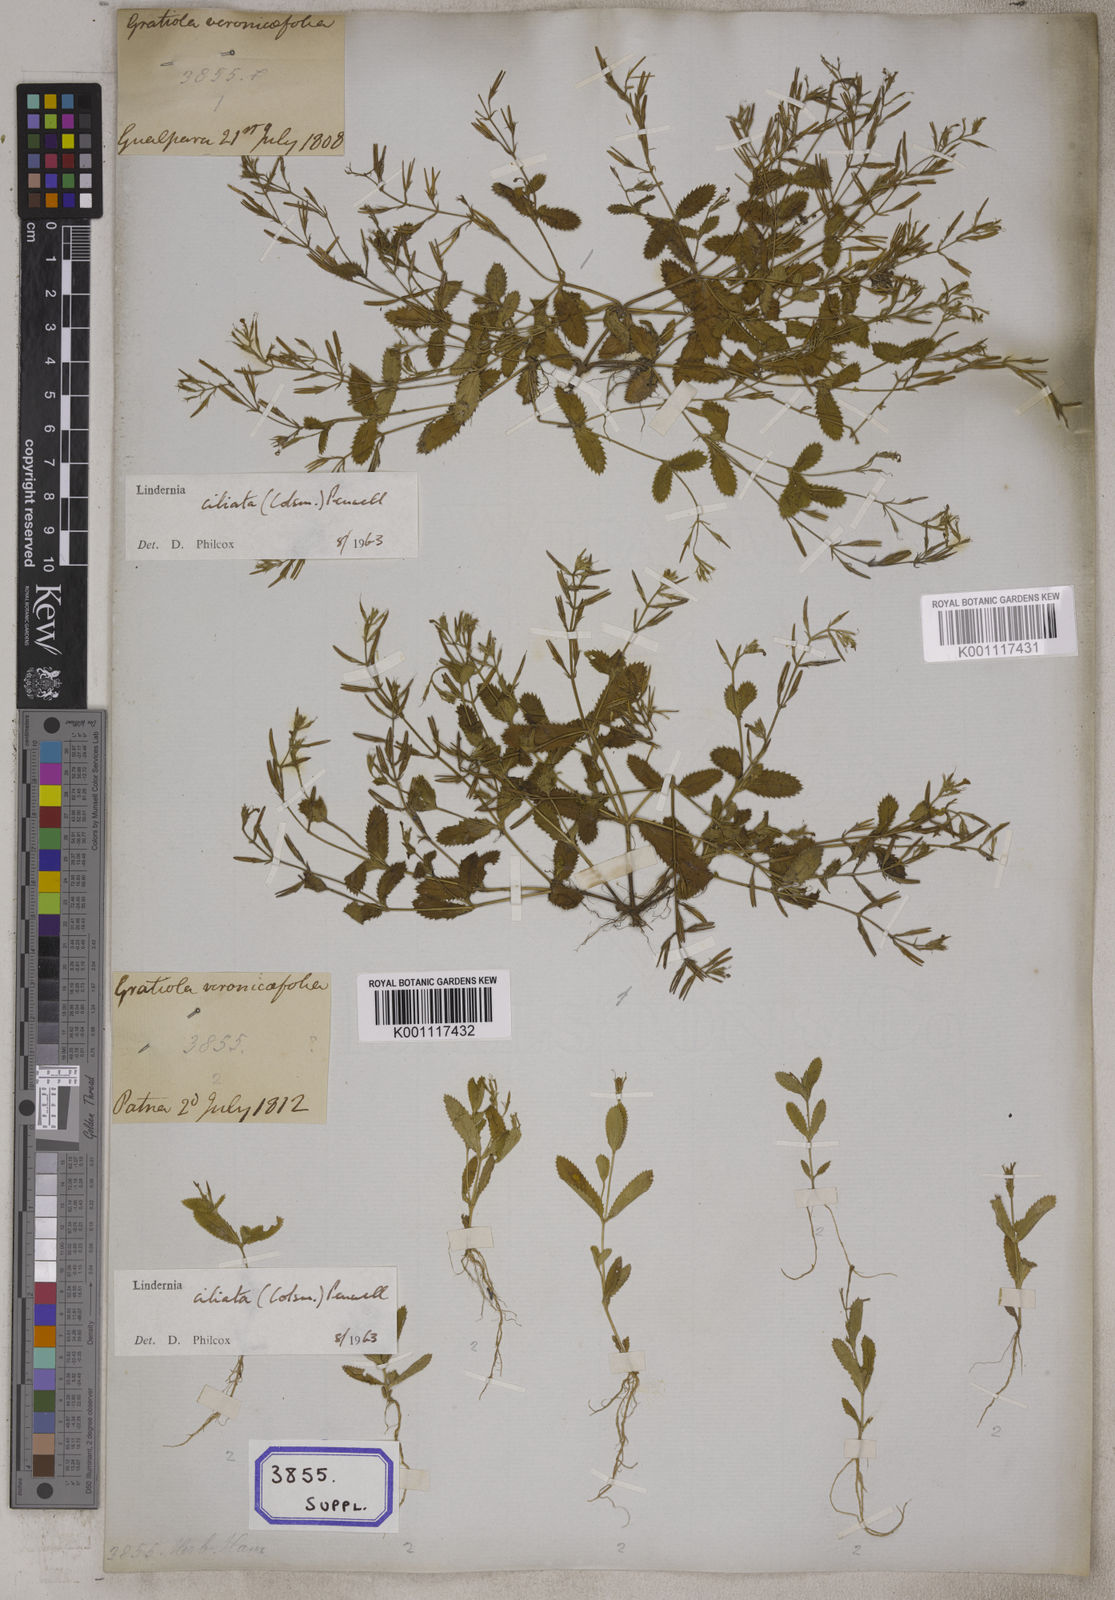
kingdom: Plantae
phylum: Tracheophyta
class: Magnoliopsida
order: Lamiales
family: Linderniaceae
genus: Bonnaya
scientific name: Bonnaya ciliata
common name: Hairy slitwort
